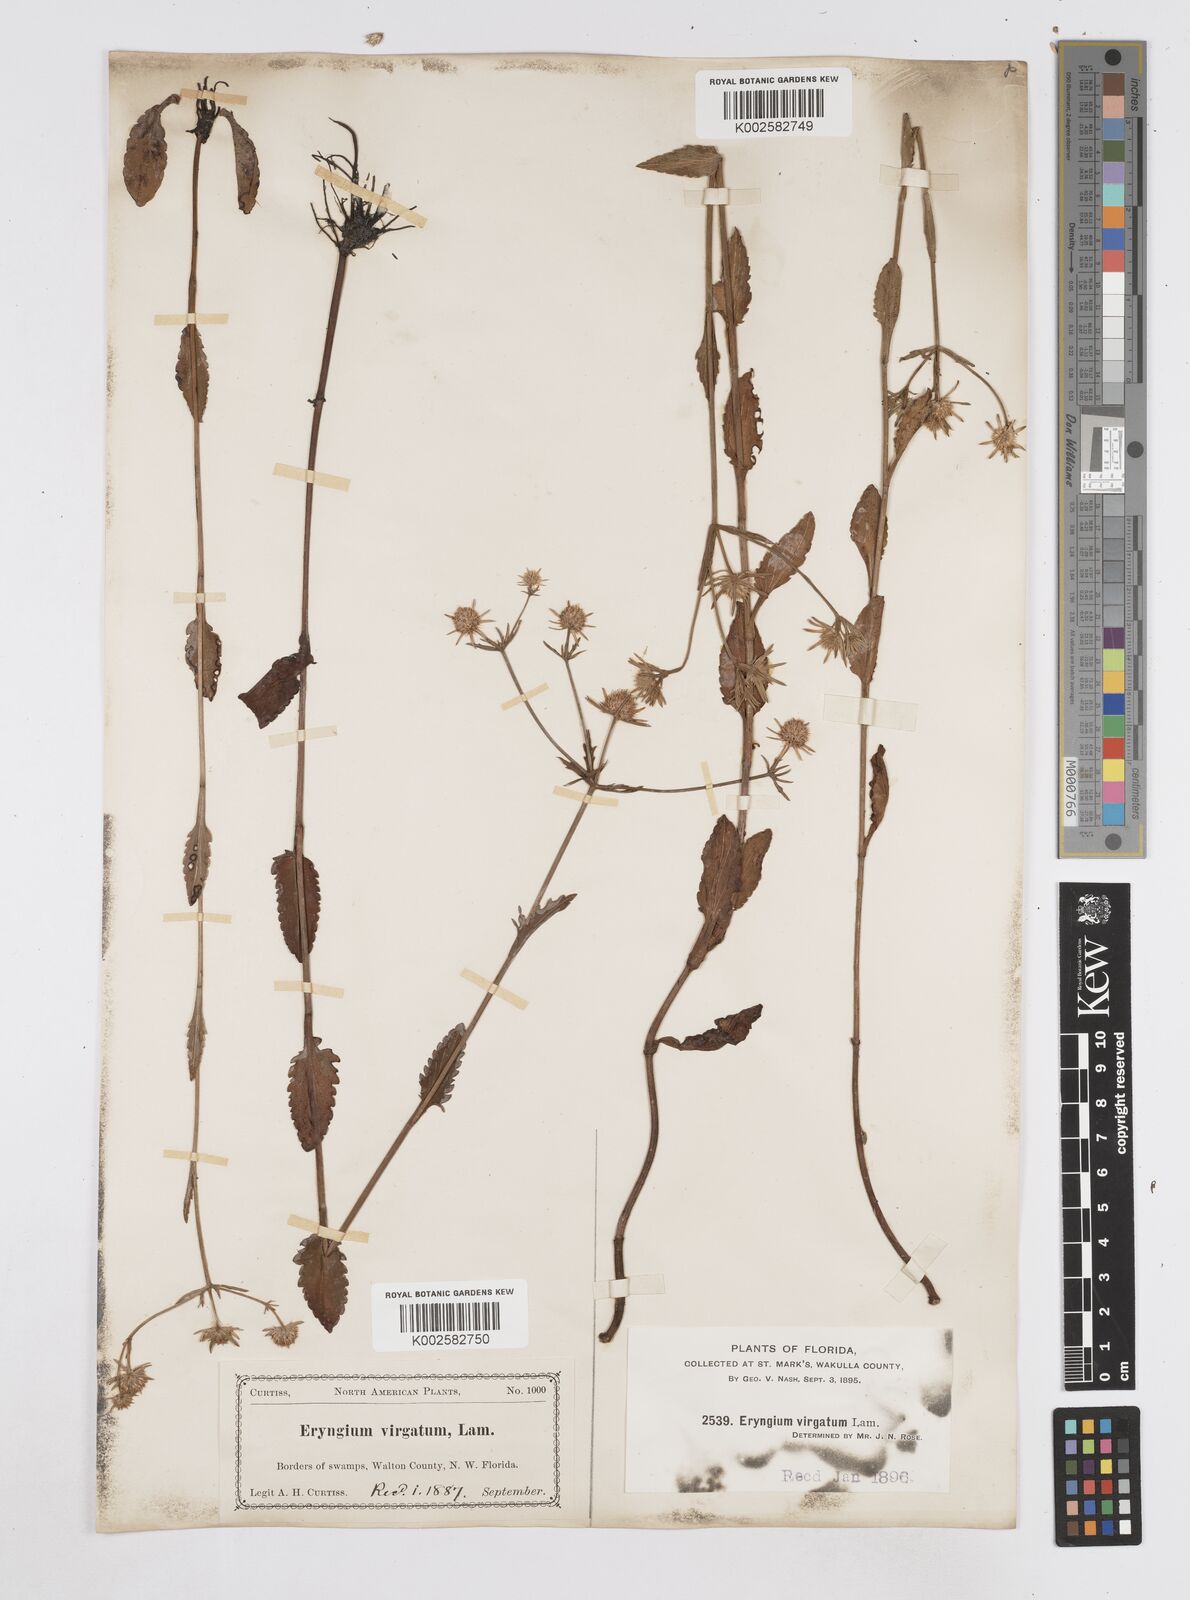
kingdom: Plantae
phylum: Tracheophyta
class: Magnoliopsida
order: Apiales
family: Apiaceae
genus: Eryngium
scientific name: Eryngium integrifolium
